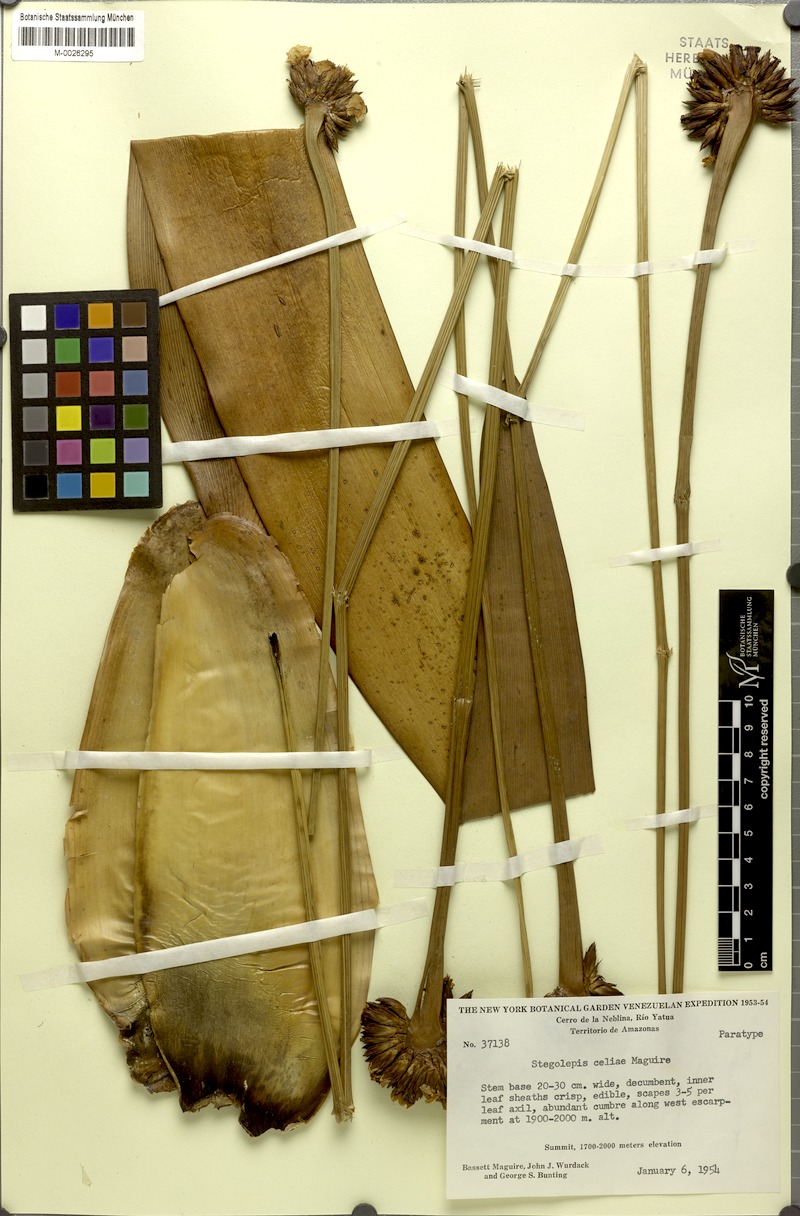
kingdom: Plantae
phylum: Tracheophyta
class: Liliopsida
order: Poales
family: Rapateaceae
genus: Stegolepis
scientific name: Stegolepis celiae
